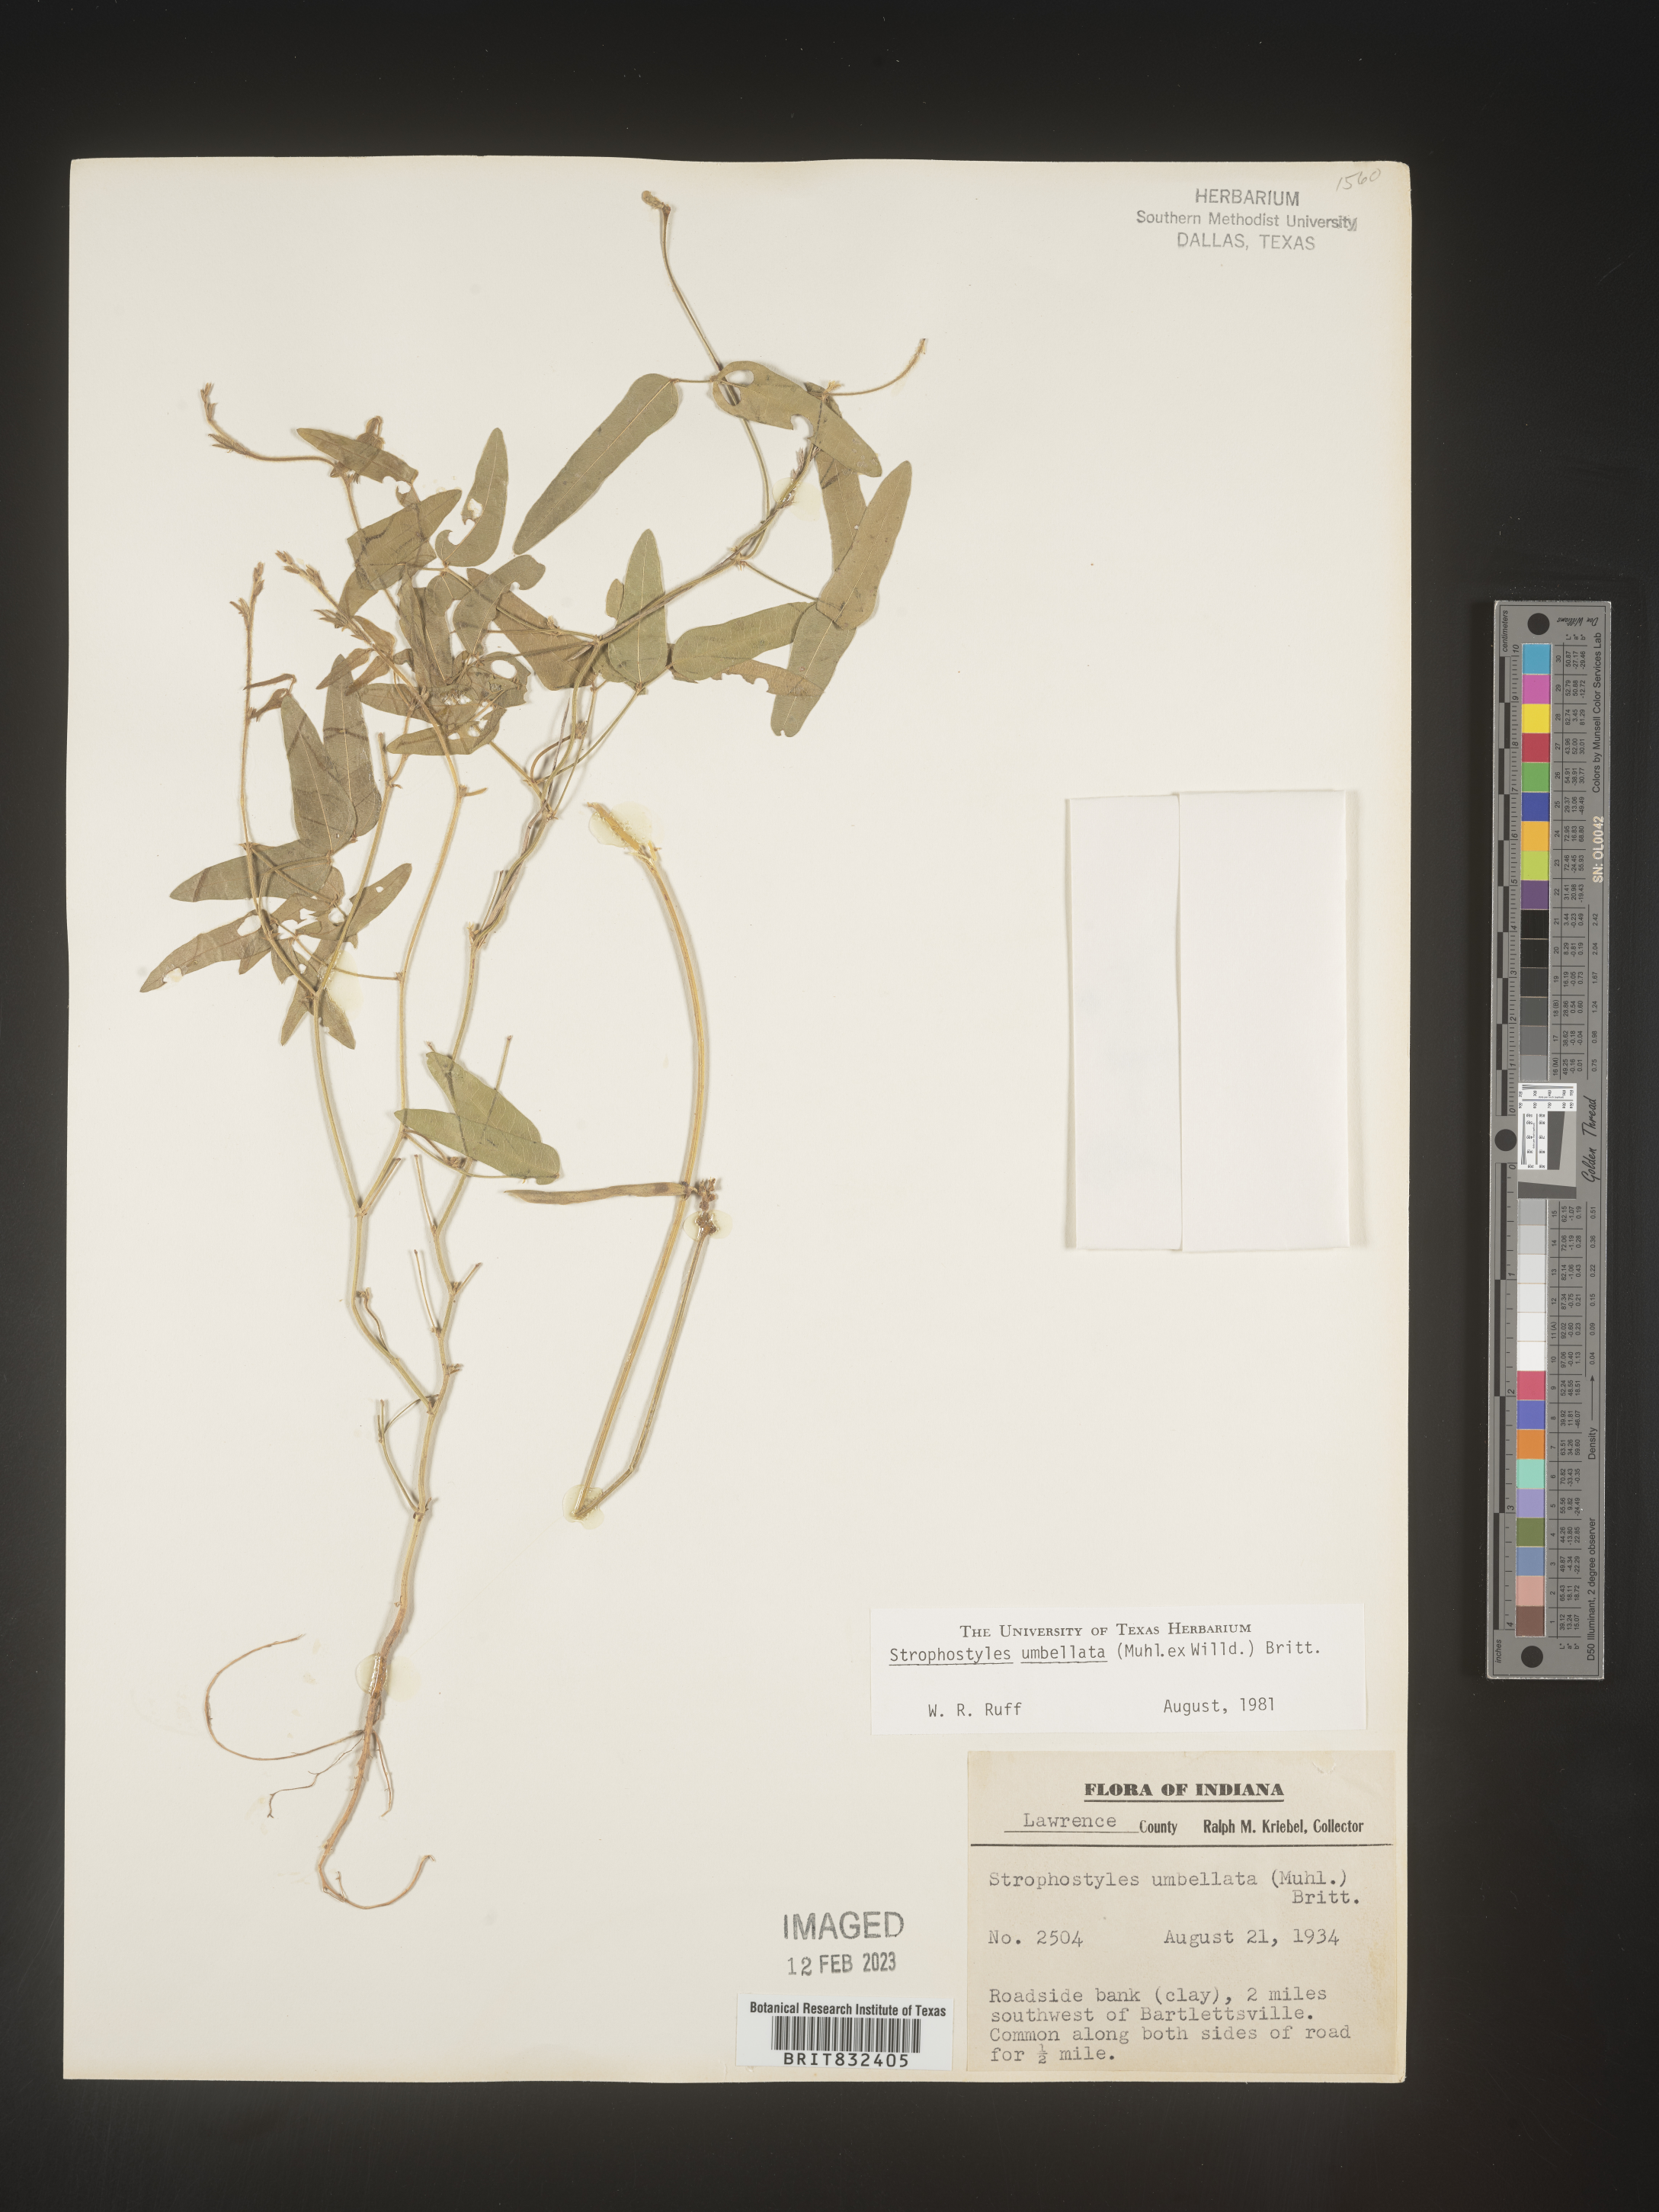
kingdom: Plantae
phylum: Tracheophyta
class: Magnoliopsida
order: Fabales
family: Fabaceae
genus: Strophostyles
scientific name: Strophostyles umbellata
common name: Perennial wild bean
